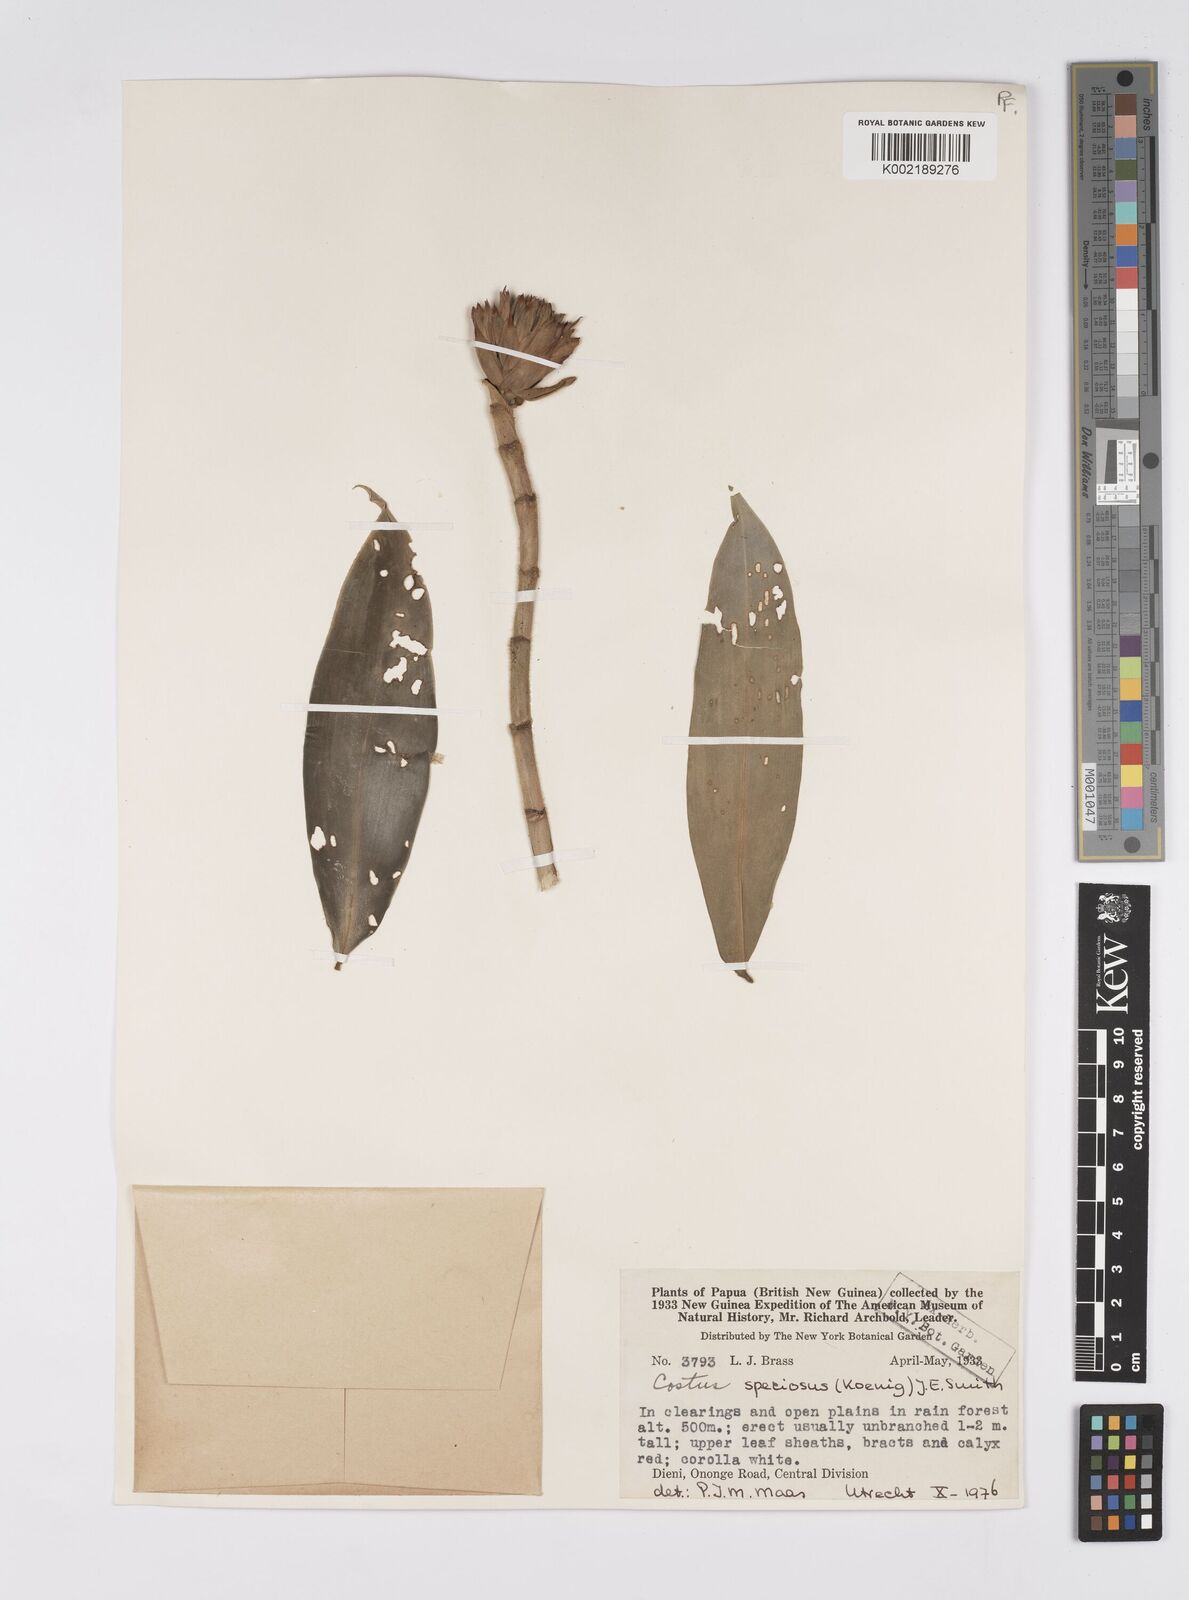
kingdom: Plantae
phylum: Tracheophyta
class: Liliopsida
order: Zingiberales
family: Costaceae
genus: Hellenia
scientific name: Hellenia speciosa
